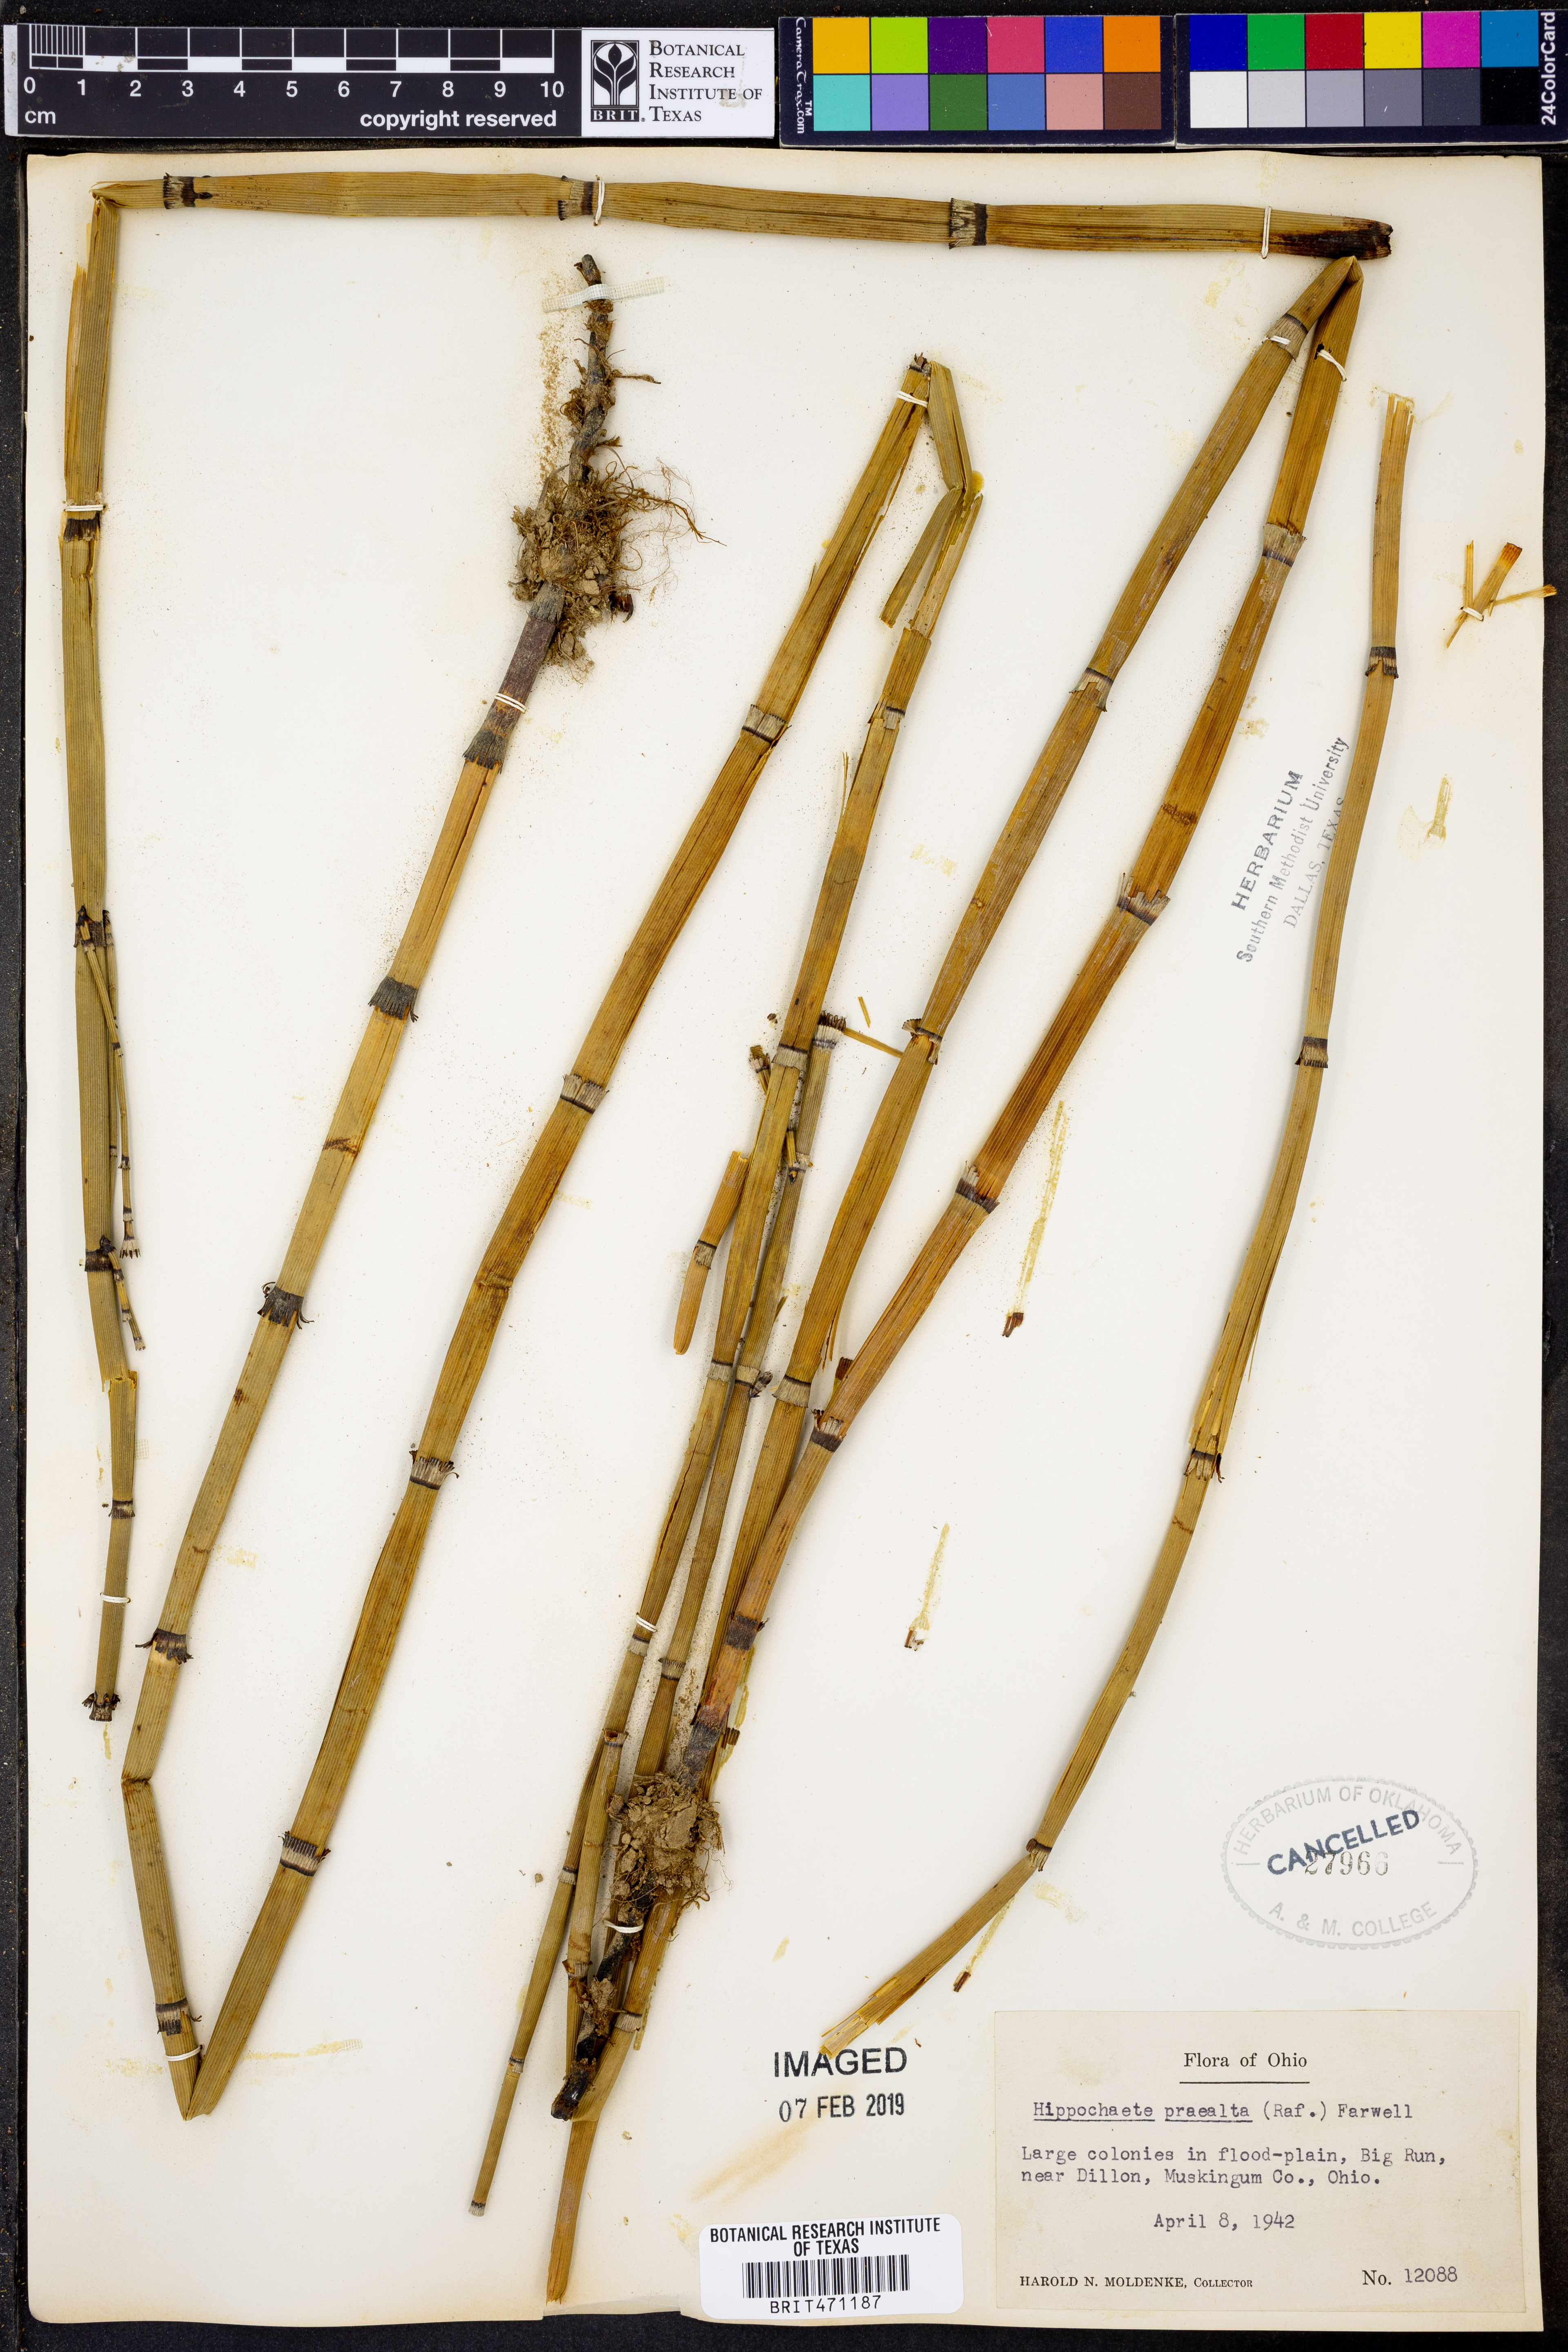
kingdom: Plantae
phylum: Tracheophyta
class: Polypodiopsida
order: Equisetales
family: Equisetaceae
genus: Equisetum
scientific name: Equisetum praealtum
